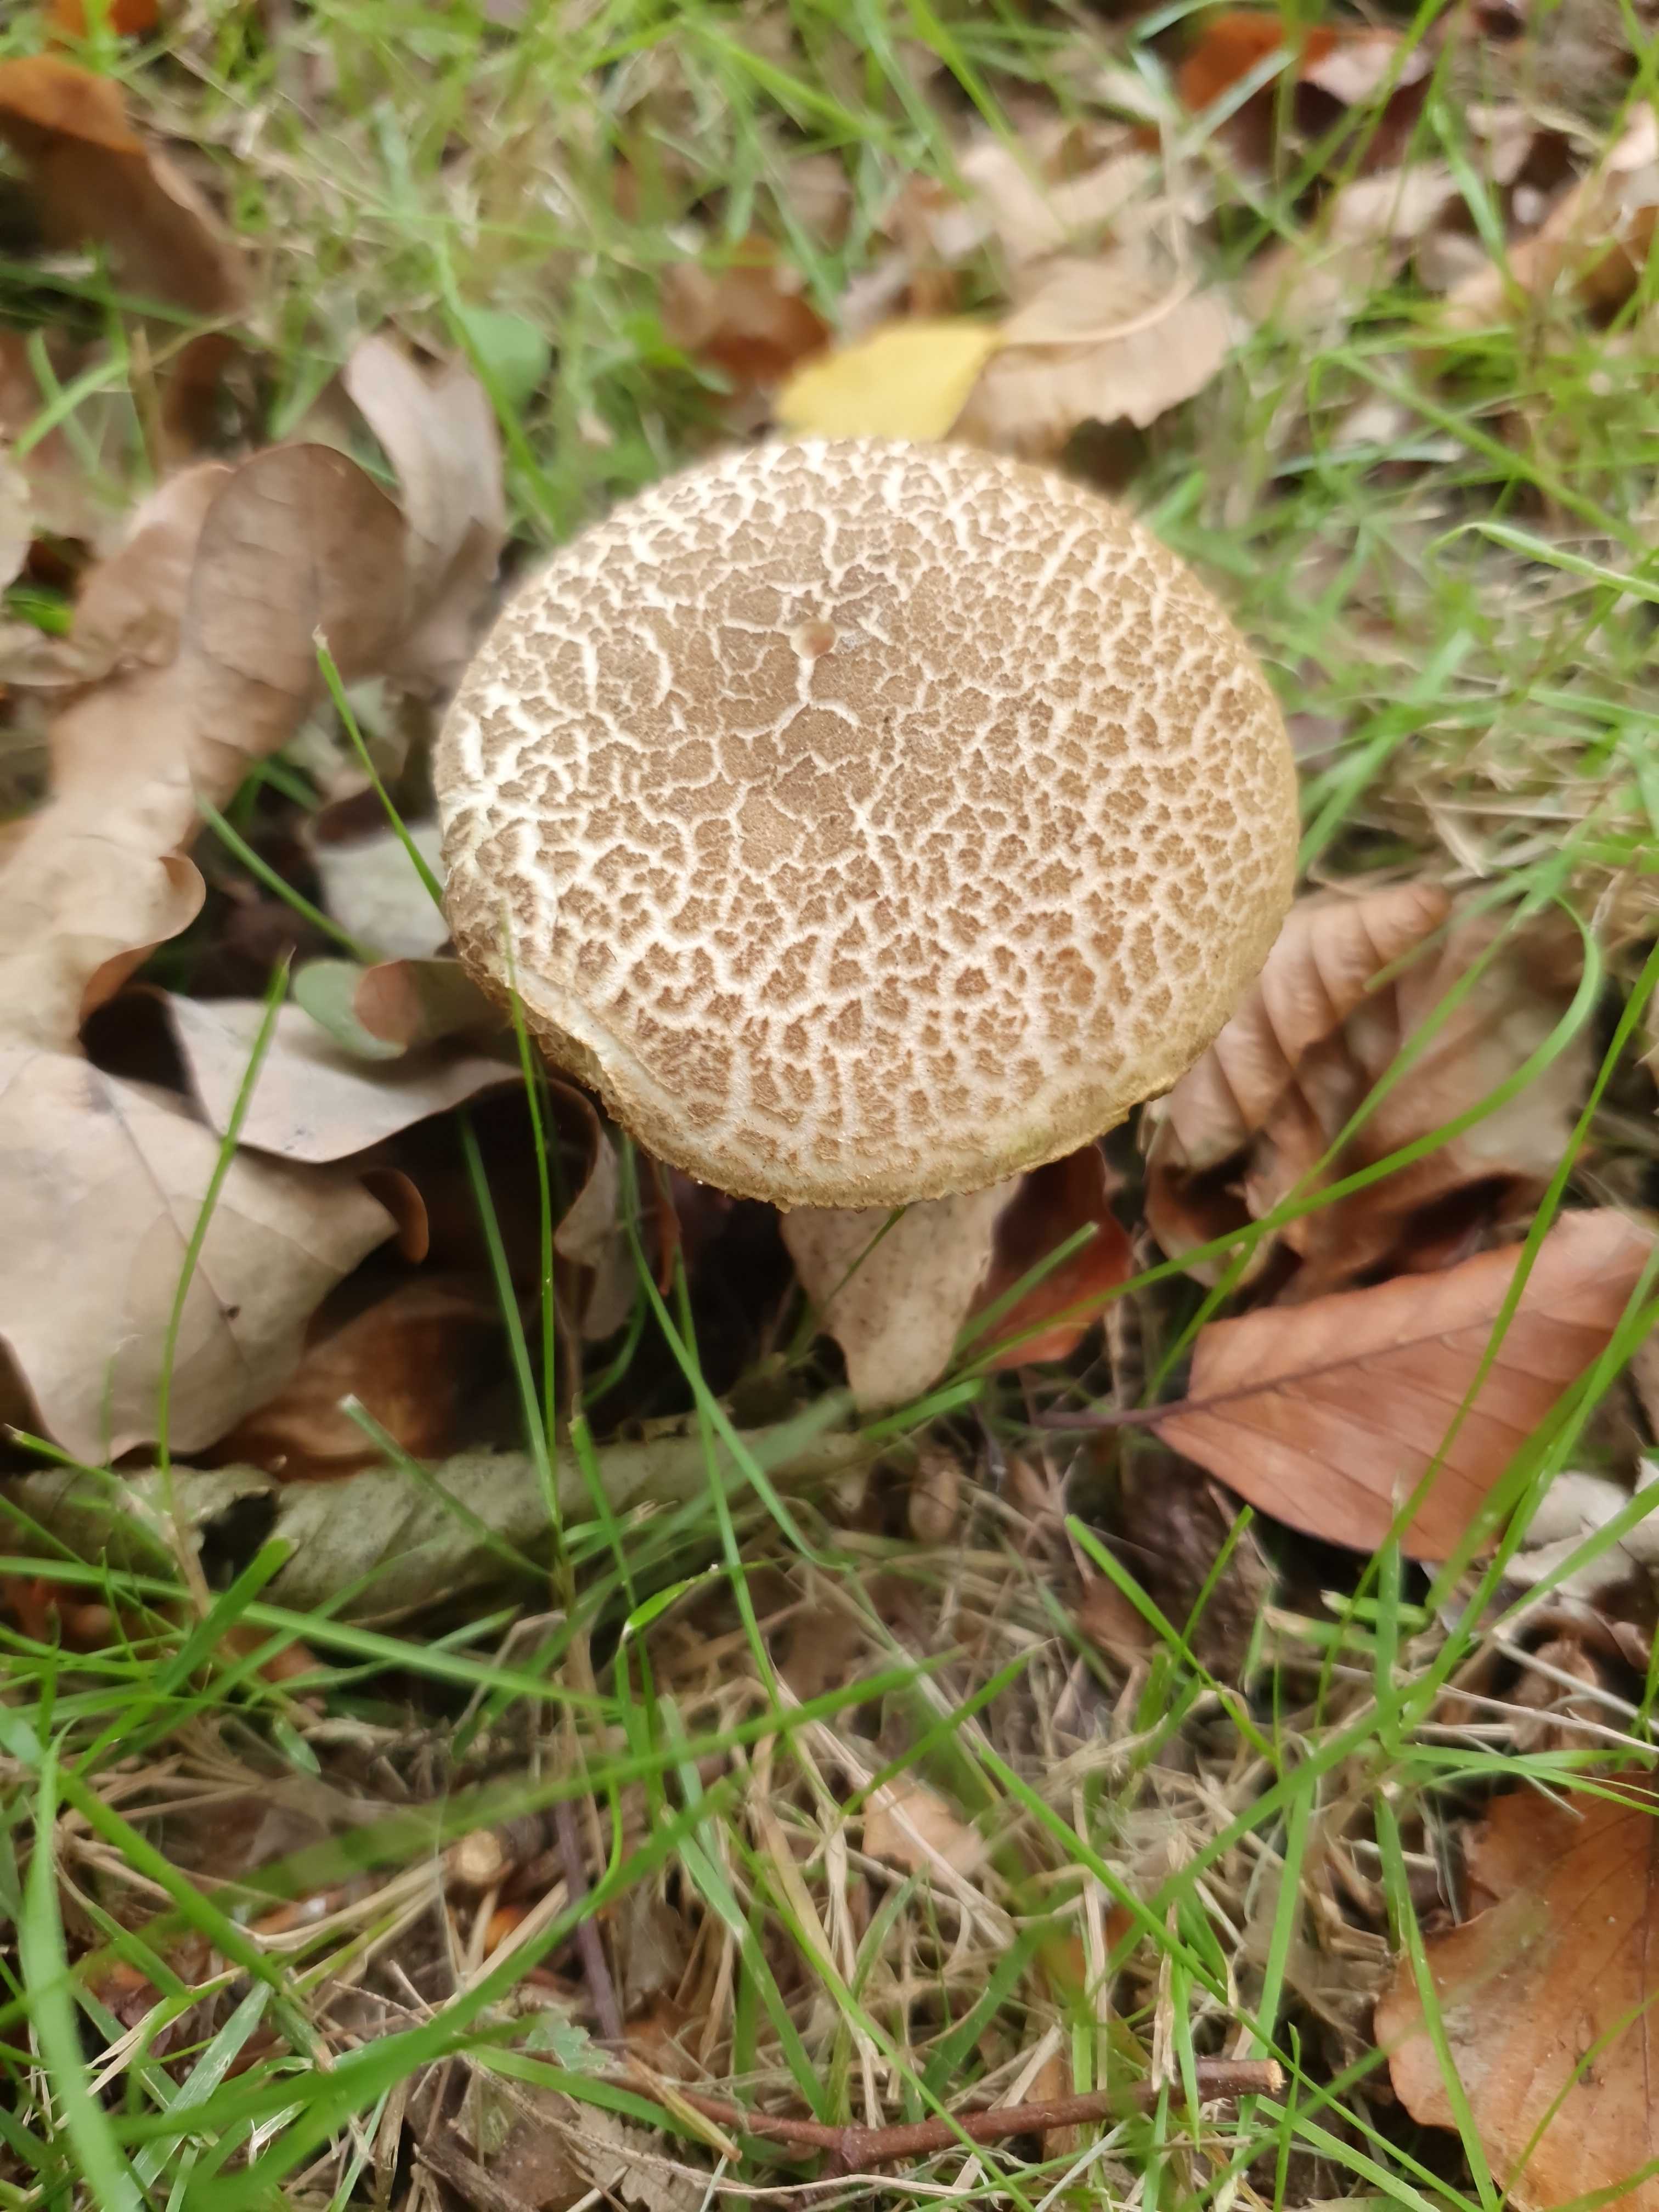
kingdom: Fungi
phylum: Basidiomycota
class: Agaricomycetes
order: Boletales
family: Boletaceae
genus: Xerocomellus
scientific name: Xerocomellus
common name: dværgrørhat
